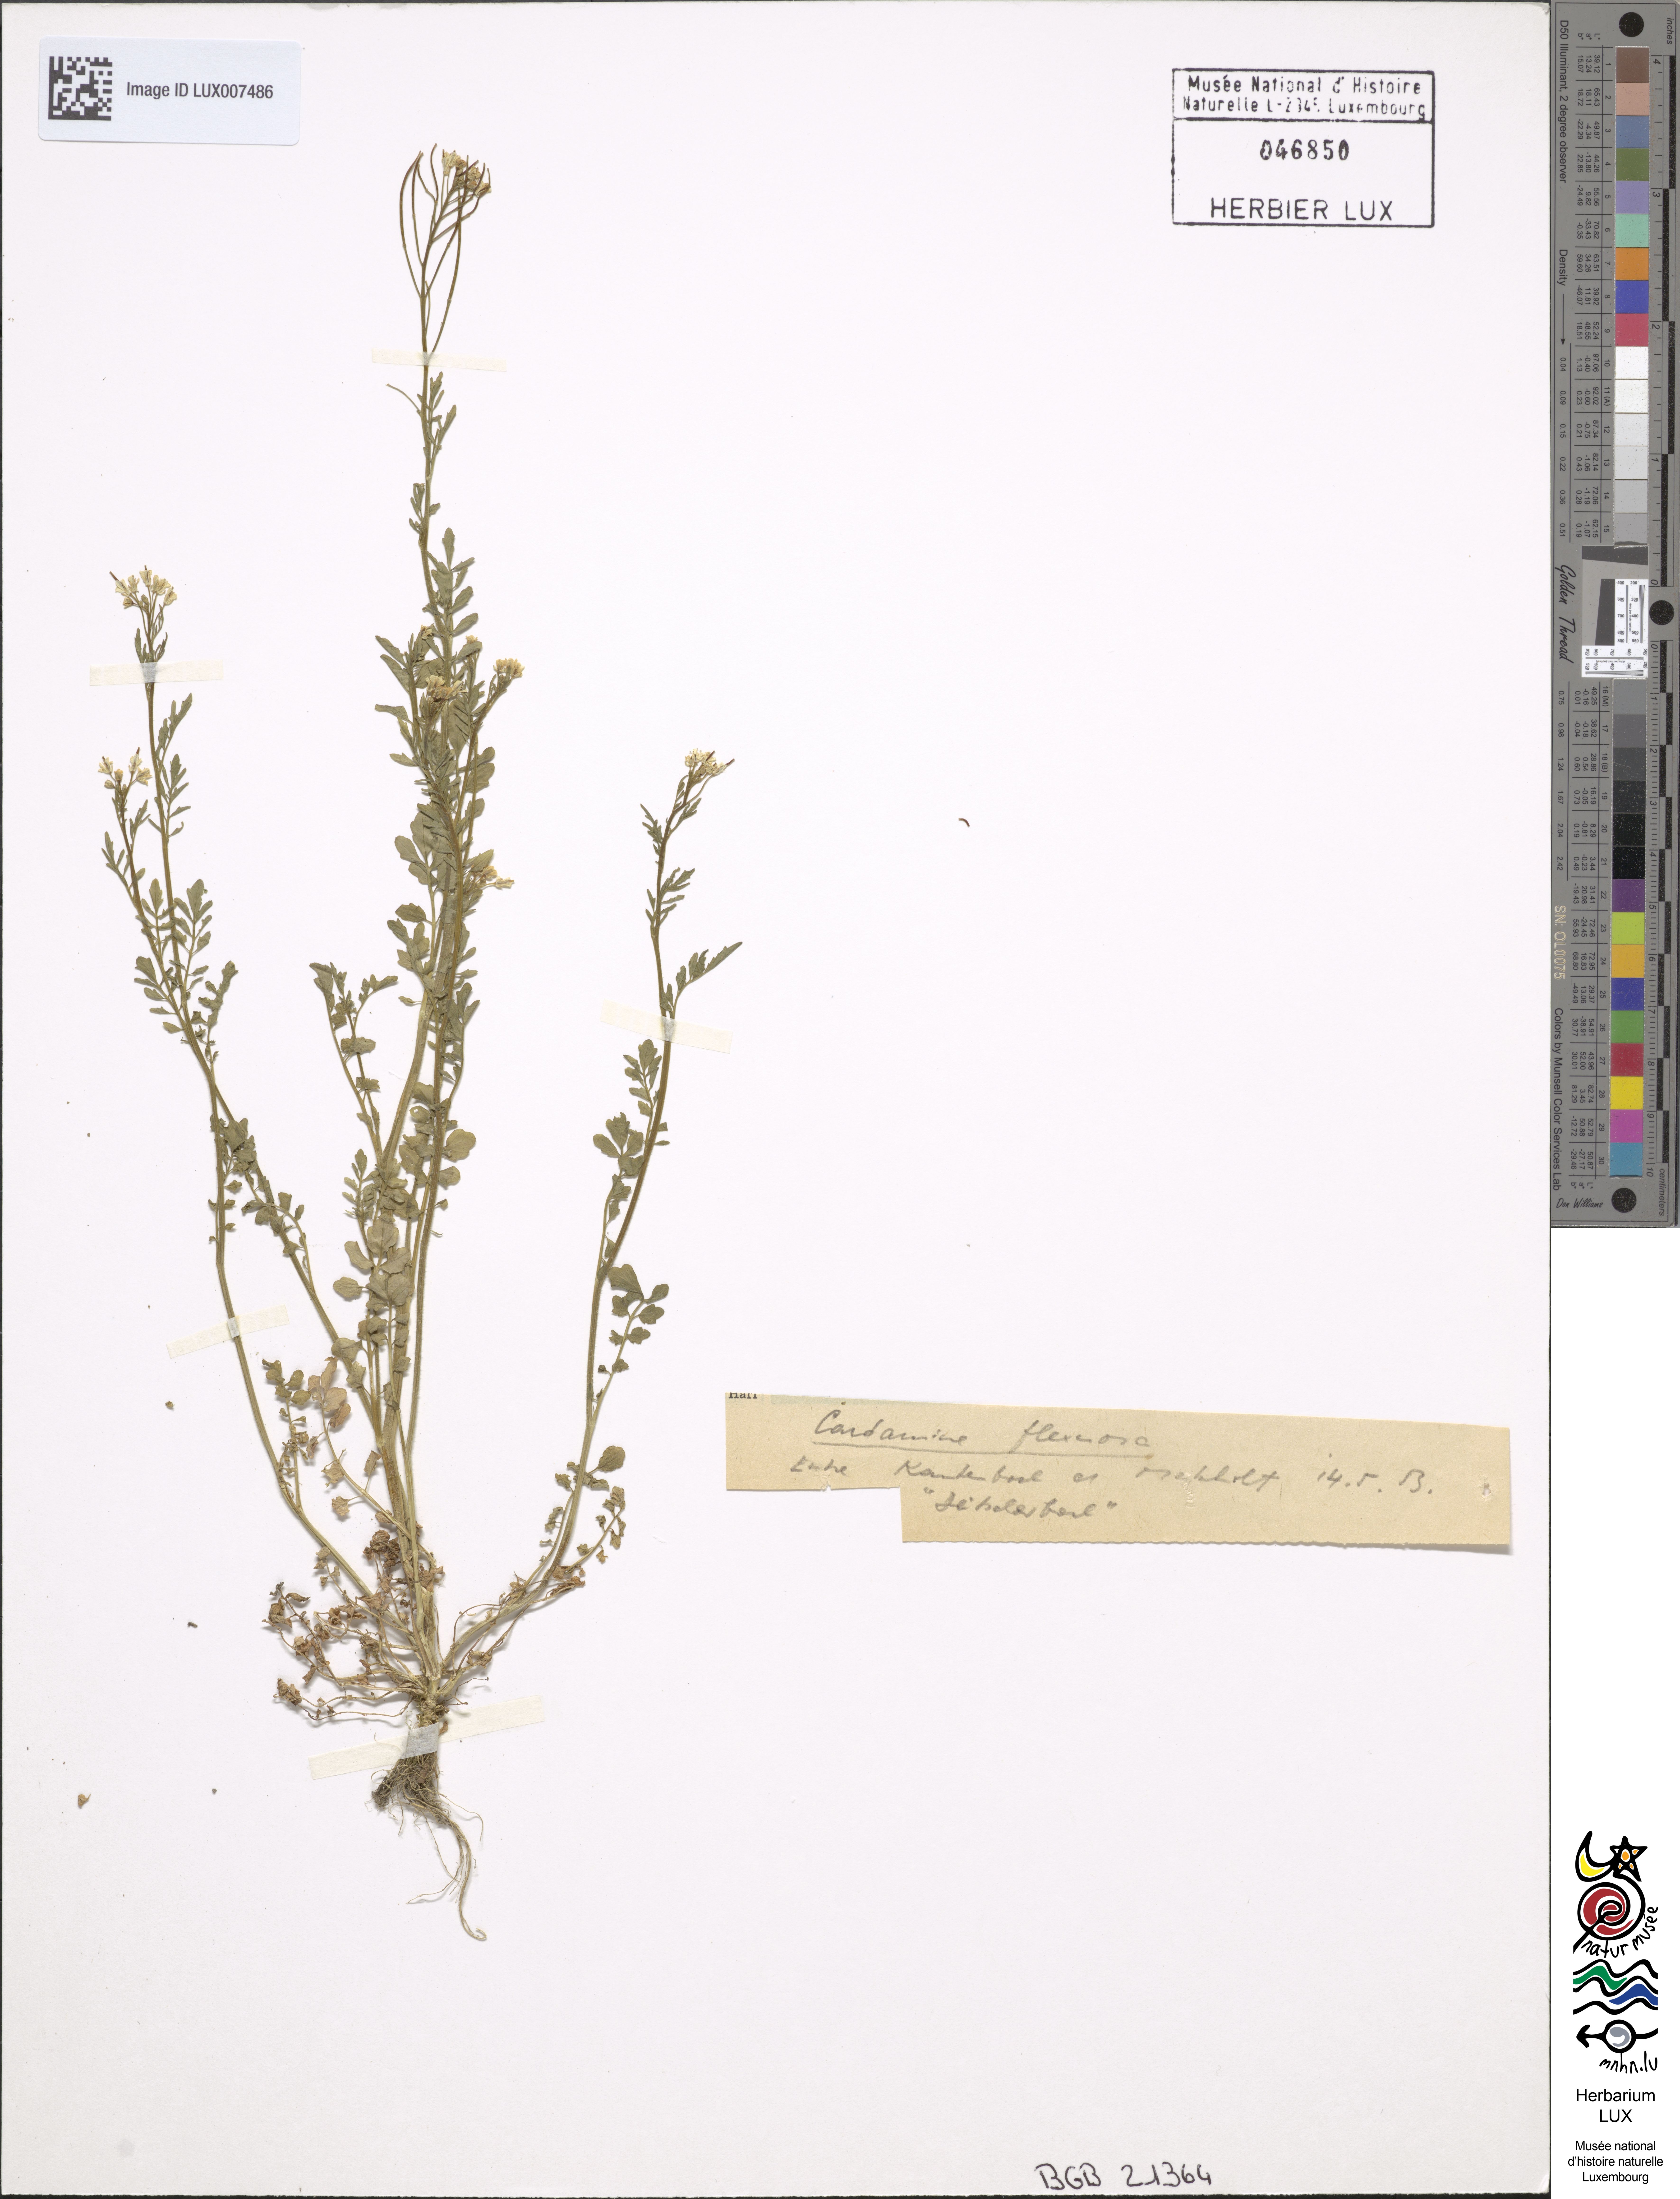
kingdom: Plantae
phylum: Tracheophyta
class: Magnoliopsida
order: Brassicales
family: Brassicaceae
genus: Cardamine
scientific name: Cardamine flexuosa
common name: Woodland bittercress
